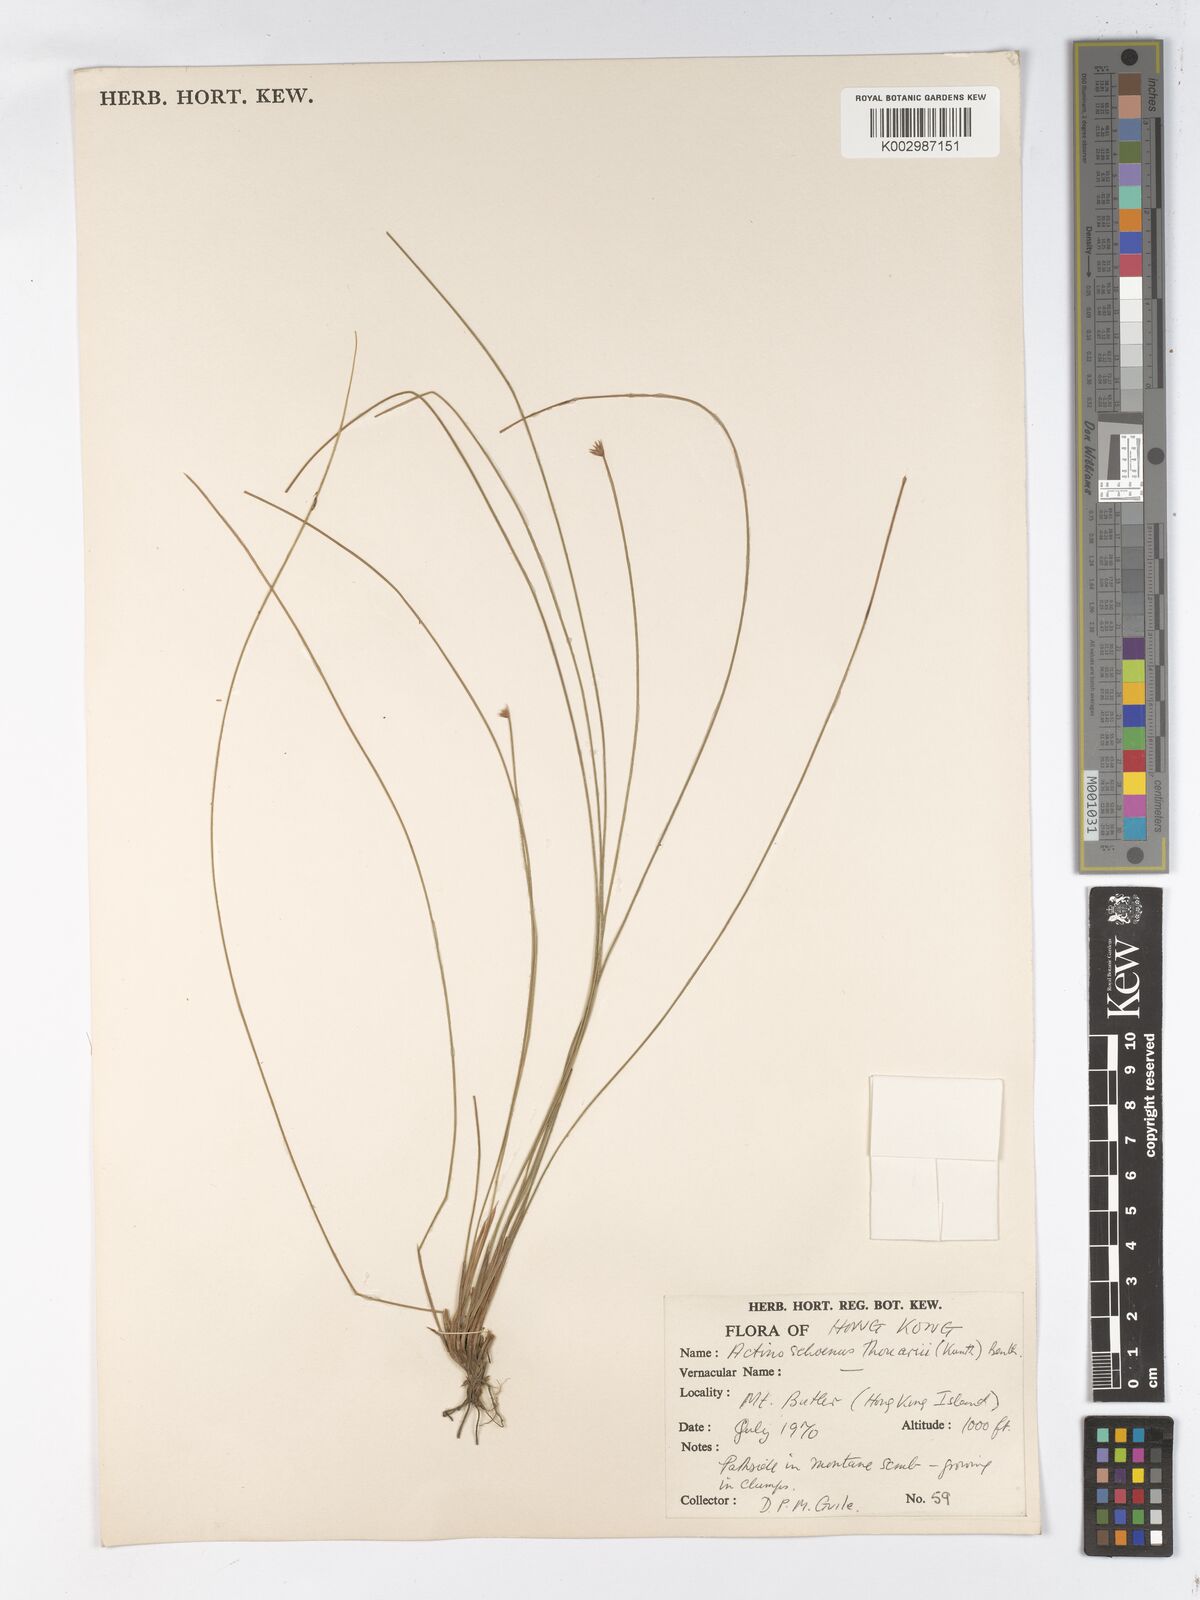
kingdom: Plantae
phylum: Tracheophyta
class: Liliopsida
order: Poales
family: Cyperaceae
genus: Actinoschoenus
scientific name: Actinoschoenus aphyllus
